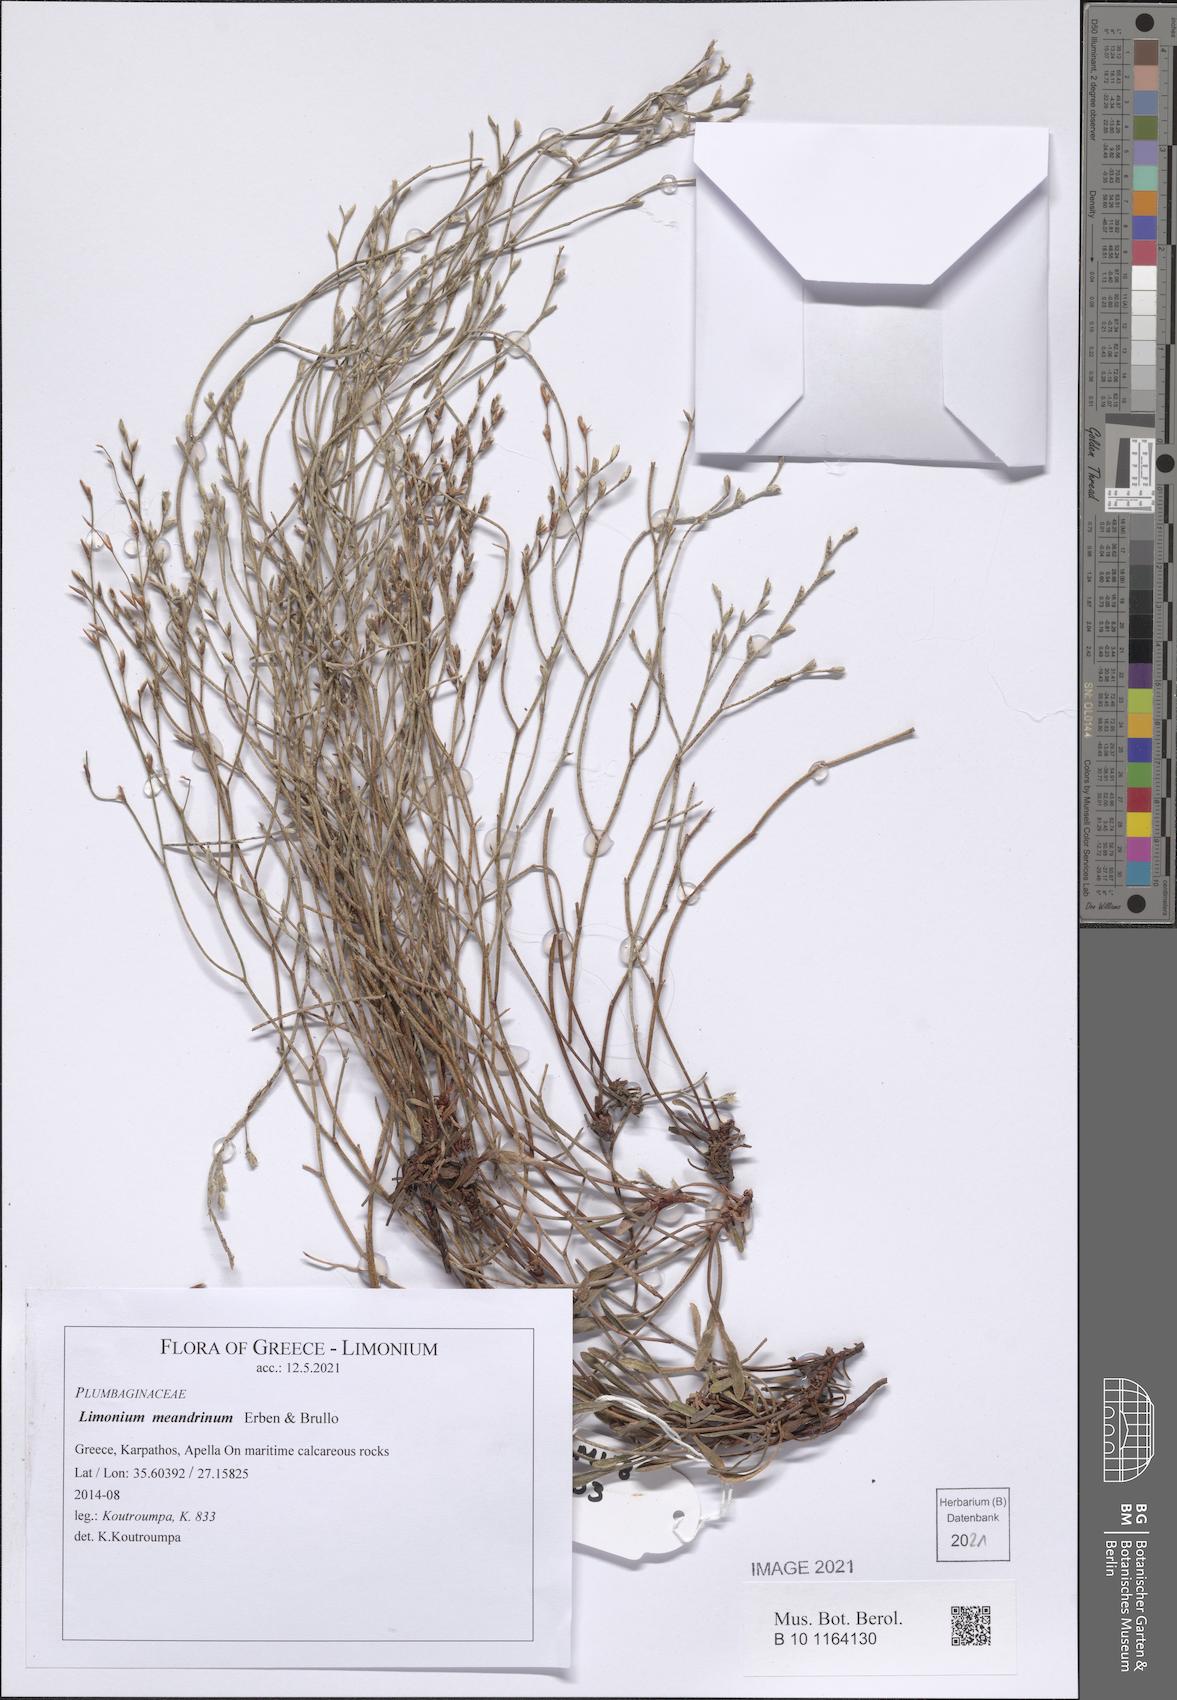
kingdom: Plantae
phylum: Tracheophyta
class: Magnoliopsida
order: Caryophyllales
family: Plumbaginaceae
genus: Limonium
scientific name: Limonium meandrinum
